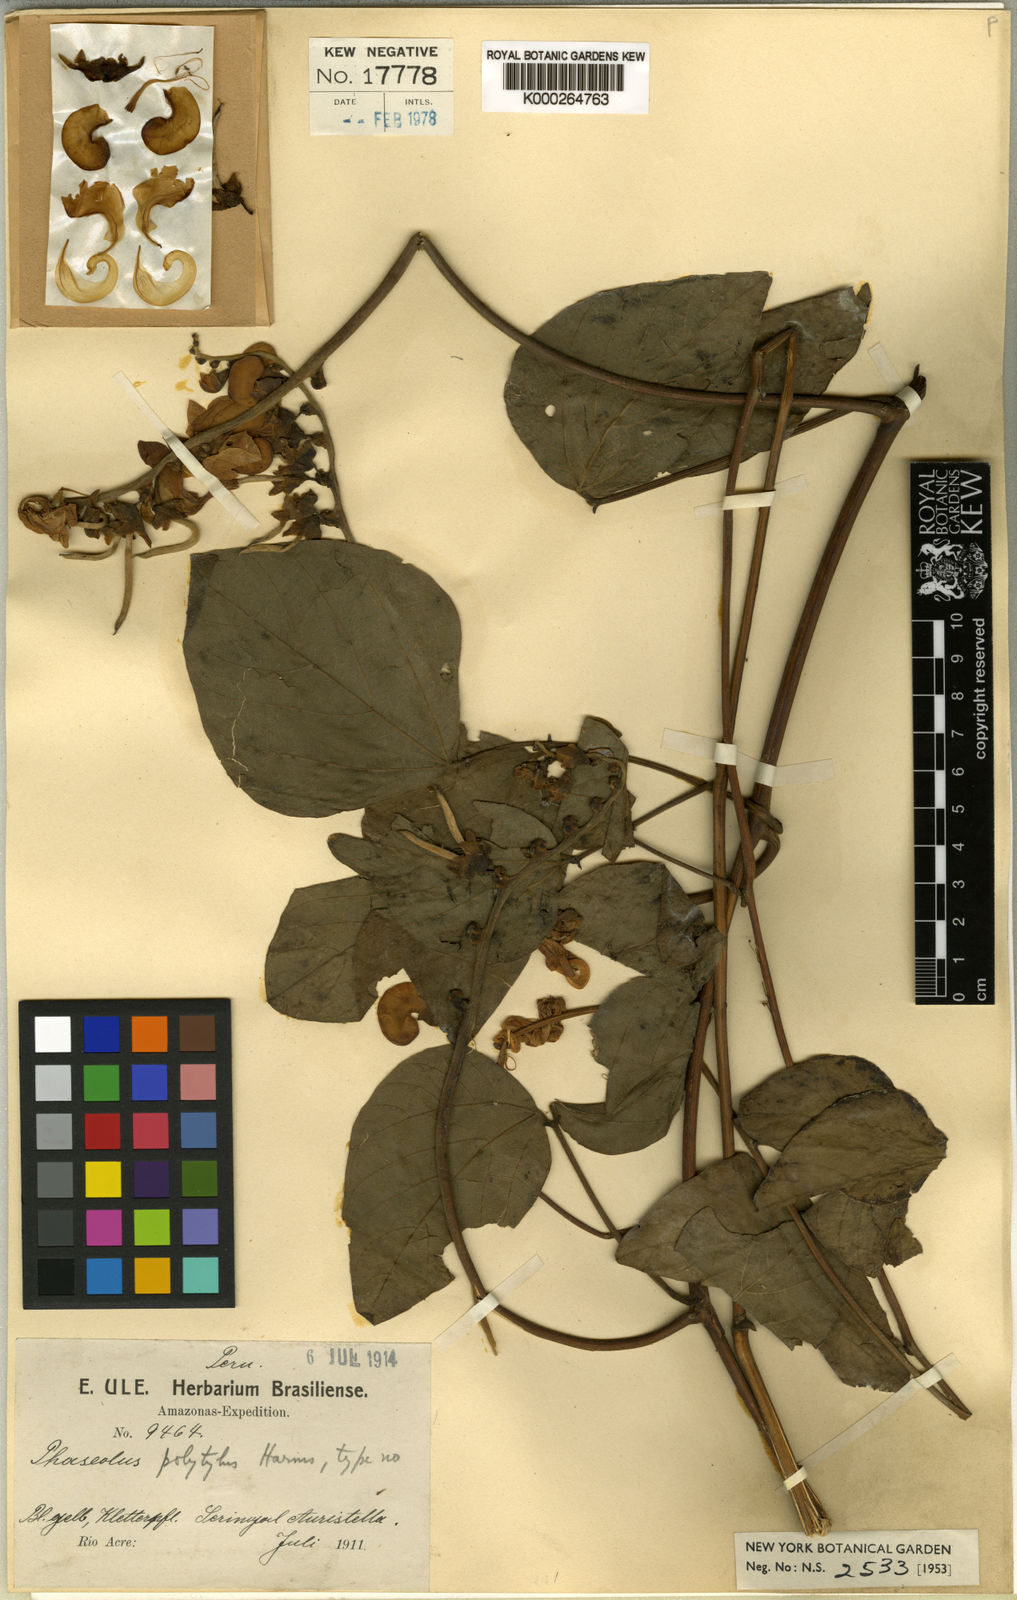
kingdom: Plantae
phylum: Tracheophyta
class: Magnoliopsida
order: Fabales
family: Fabaceae
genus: Phaseolus
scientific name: Phaseolus
